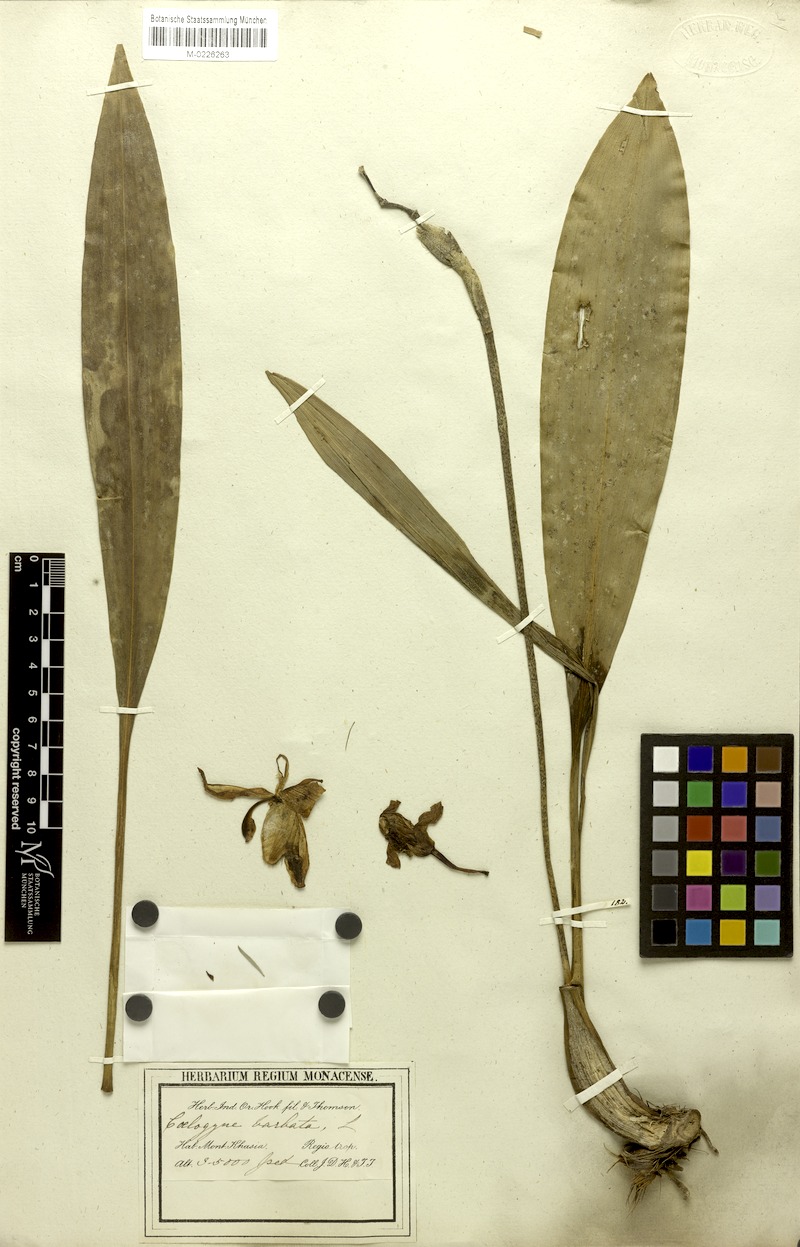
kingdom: Plantae
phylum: Tracheophyta
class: Liliopsida
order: Asparagales
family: Orchidaceae
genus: Coelogyne
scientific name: Coelogyne barbata
